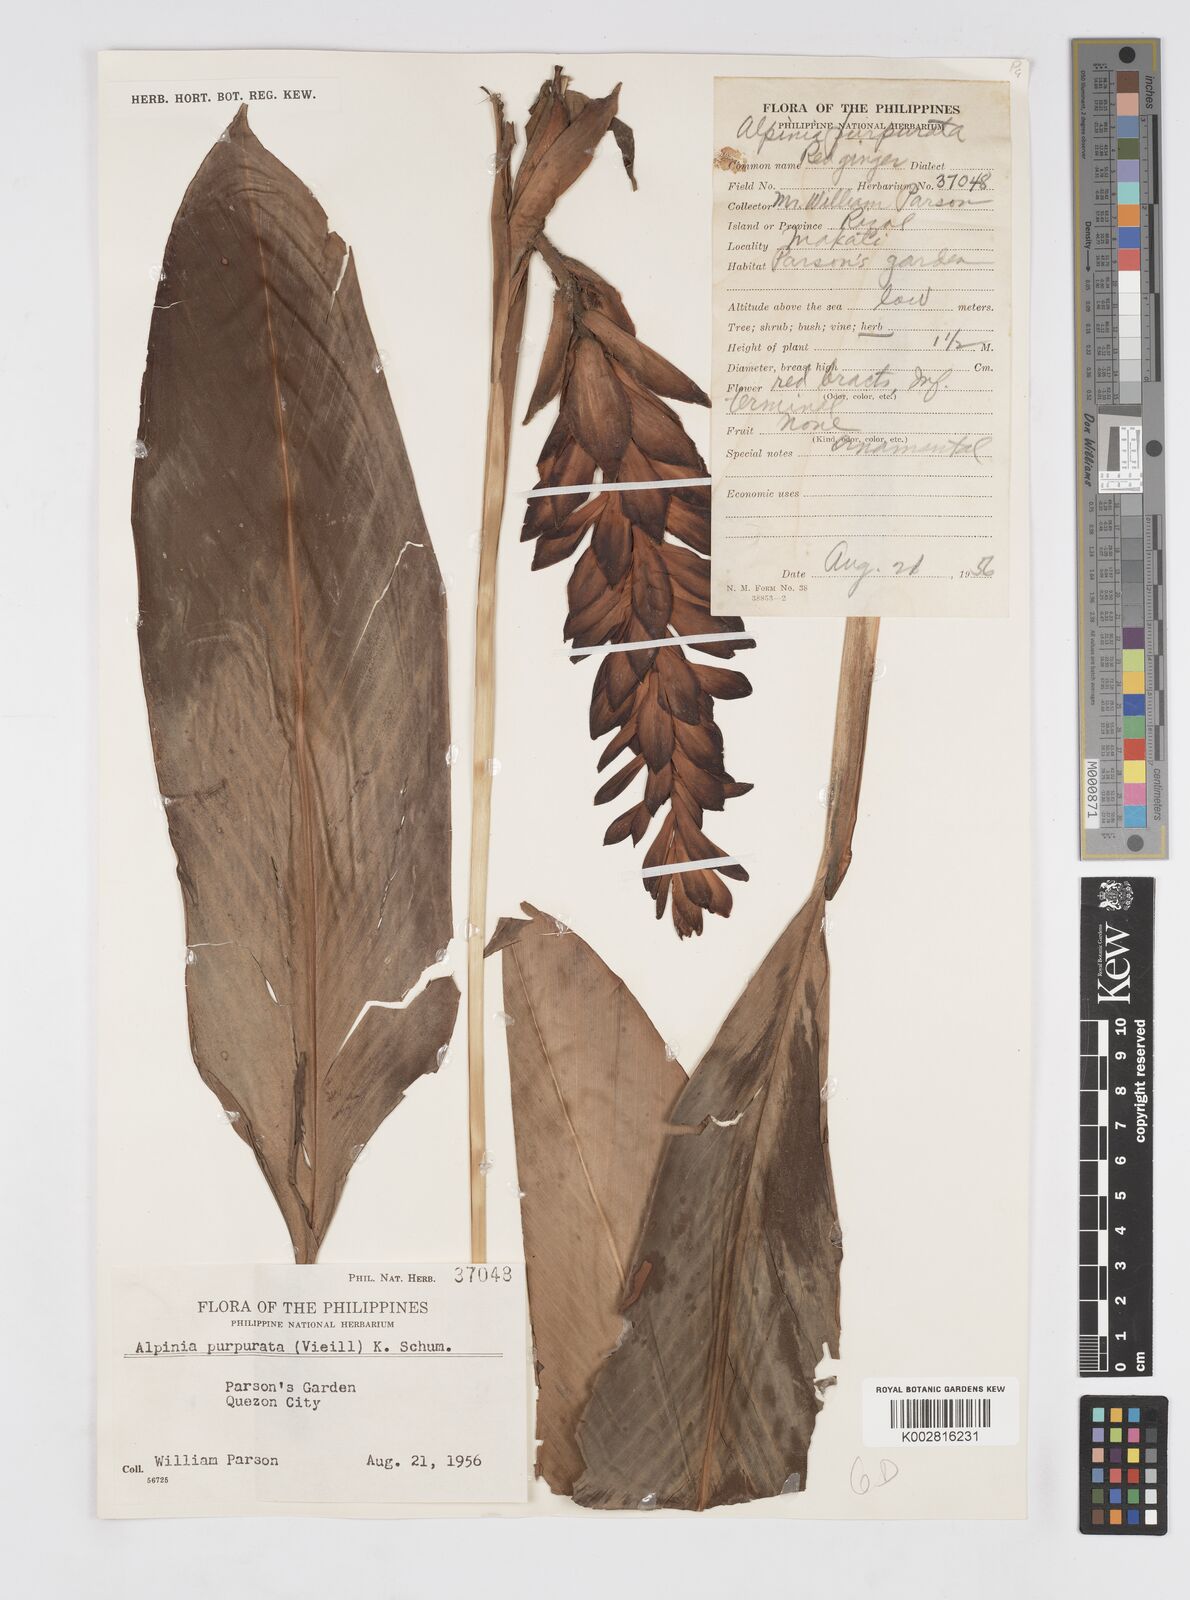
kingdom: Plantae
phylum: Tracheophyta
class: Liliopsida
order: Zingiberales
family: Zingiberaceae
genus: Alpinia
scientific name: Alpinia purpurata
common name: Red ginger
